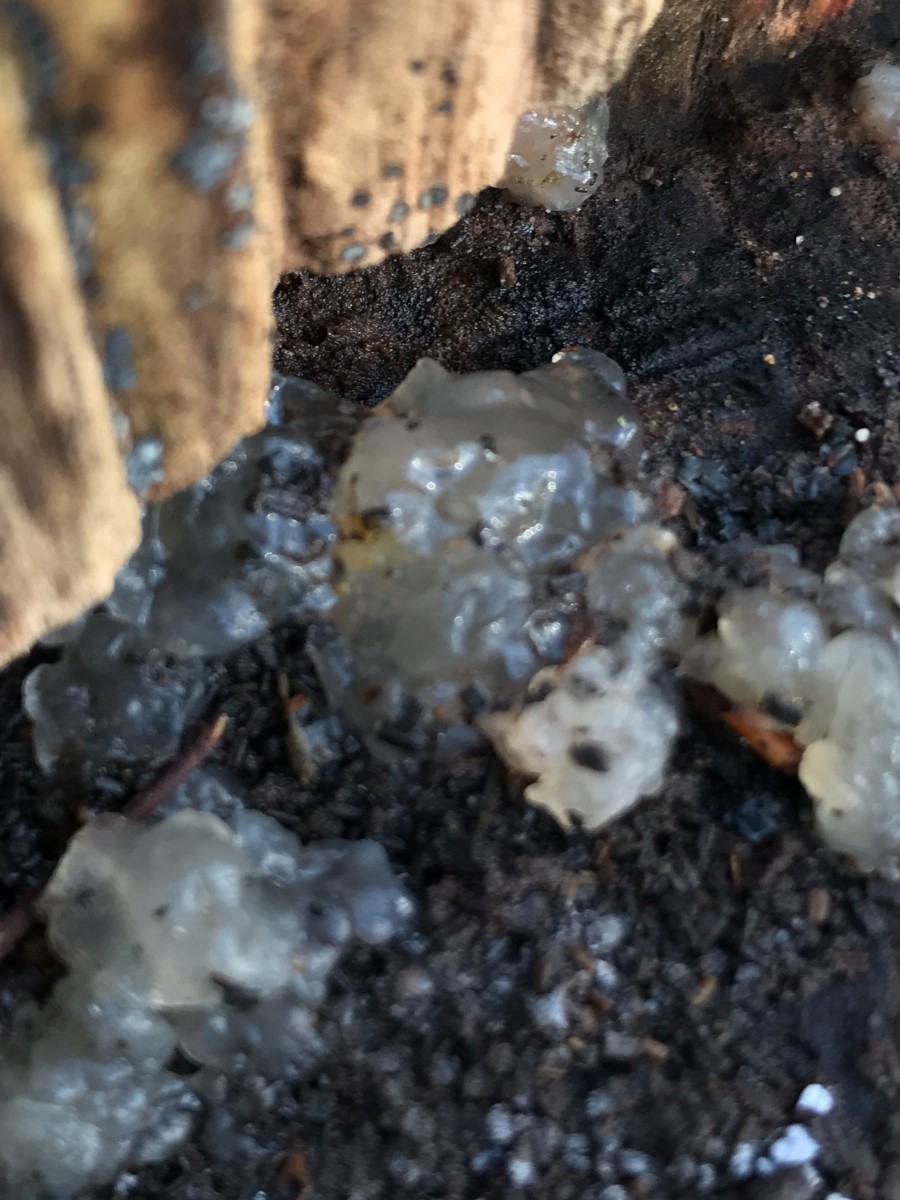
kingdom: Fungi
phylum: Basidiomycota
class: Agaricomycetes
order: Auriculariales
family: Hyaloriaceae
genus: Myxarium
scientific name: Myxarium nucleatum
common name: klar bævretop
